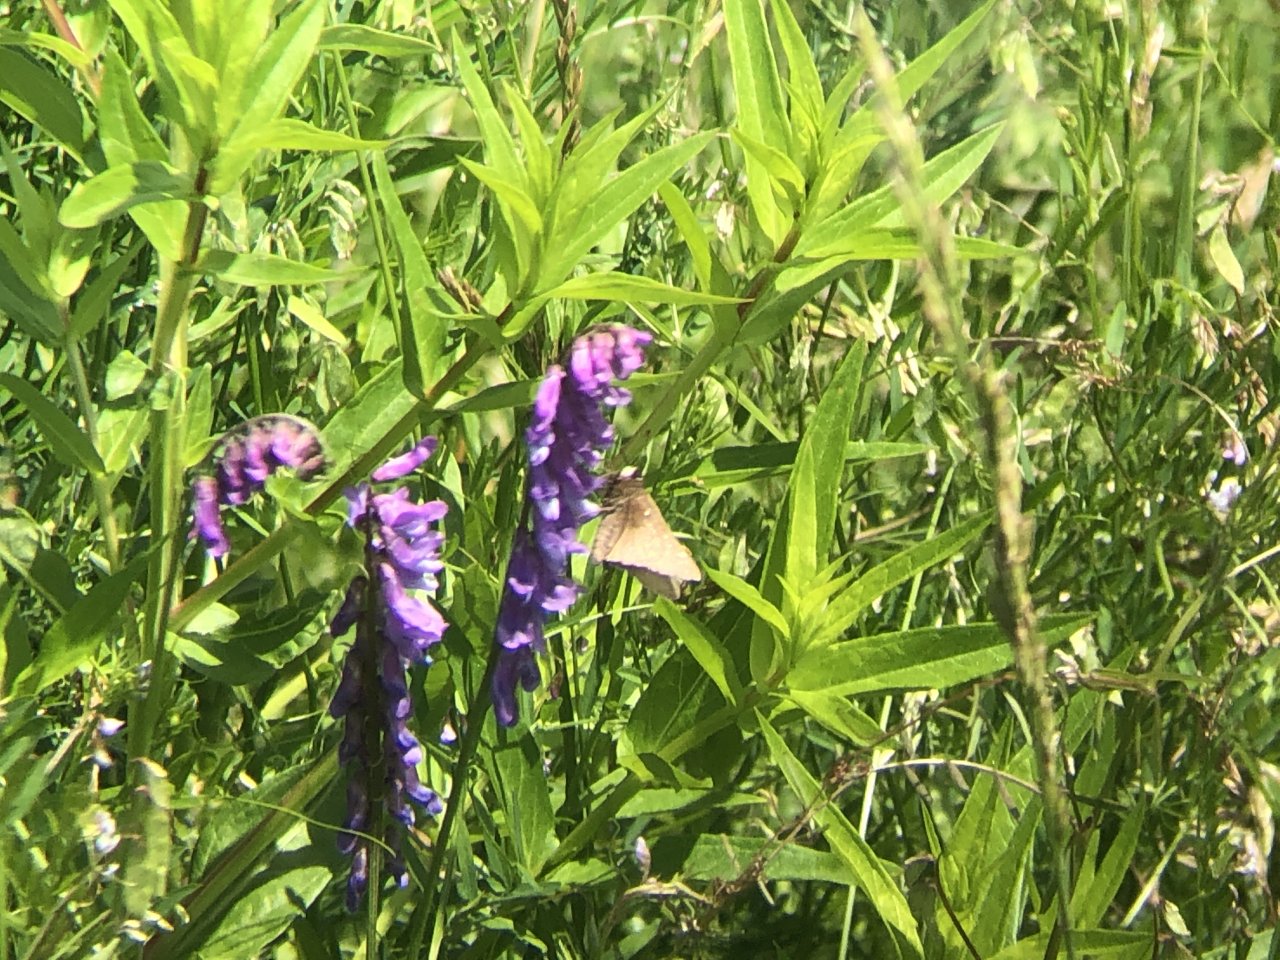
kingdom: Animalia
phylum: Arthropoda
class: Insecta
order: Lepidoptera
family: Hesperiidae
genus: Atrytonopsis
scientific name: Atrytonopsis hianna
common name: Dusted Skipper
